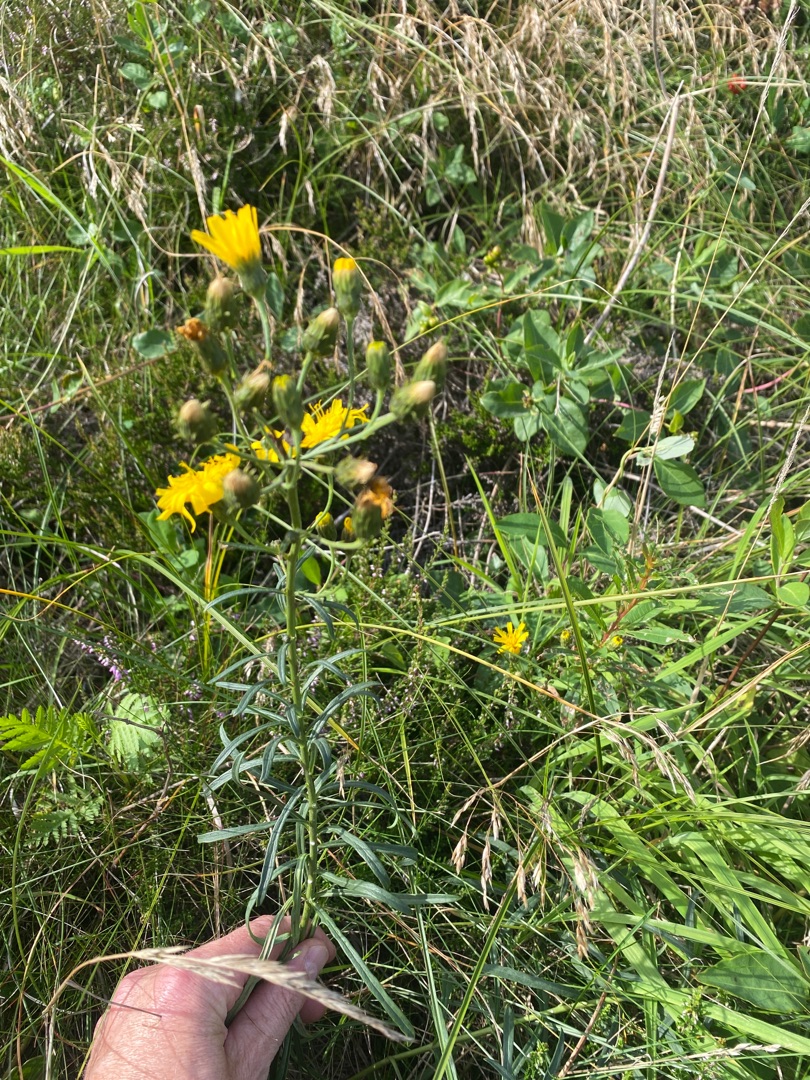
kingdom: Plantae
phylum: Tracheophyta
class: Magnoliopsida
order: Asterales
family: Asteraceae
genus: Hieracium
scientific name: Hieracium umbellatum
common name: Smalbladet høgeurt
